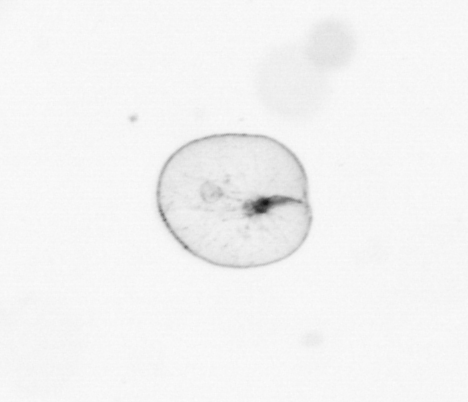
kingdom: Chromista
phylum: Myzozoa
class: Dinophyceae
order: Noctilucales
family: Noctilucaceae
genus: Noctiluca
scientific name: Noctiluca scintillans
